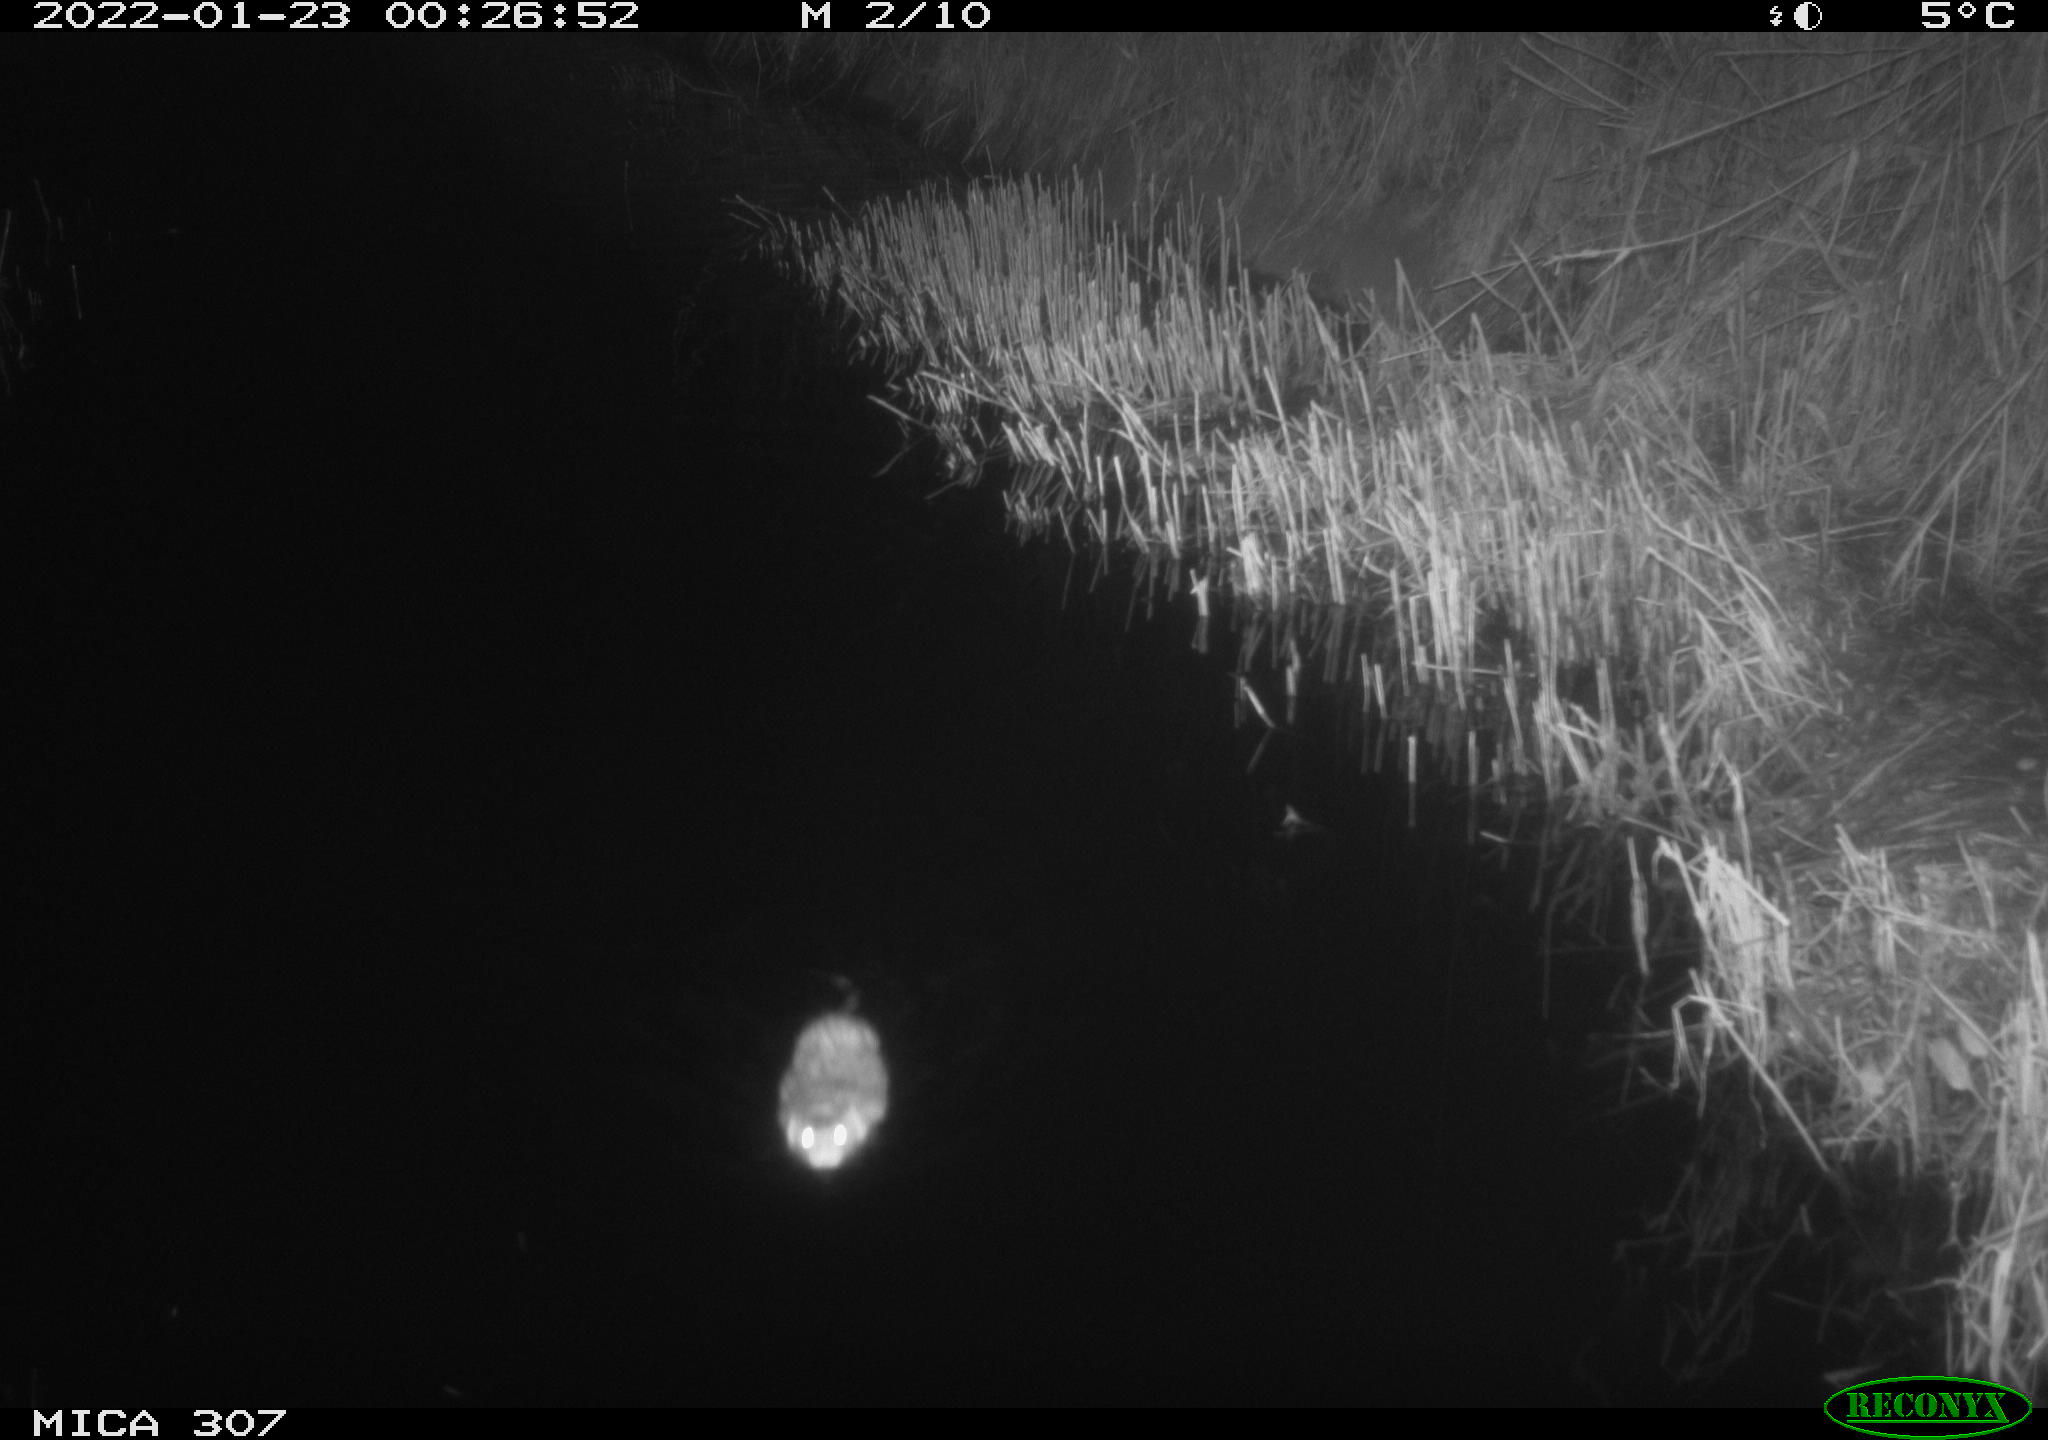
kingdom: Animalia
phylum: Chordata
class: Mammalia
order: Rodentia
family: Cricetidae
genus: Ondatra
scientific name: Ondatra zibethicus
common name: Muskrat
